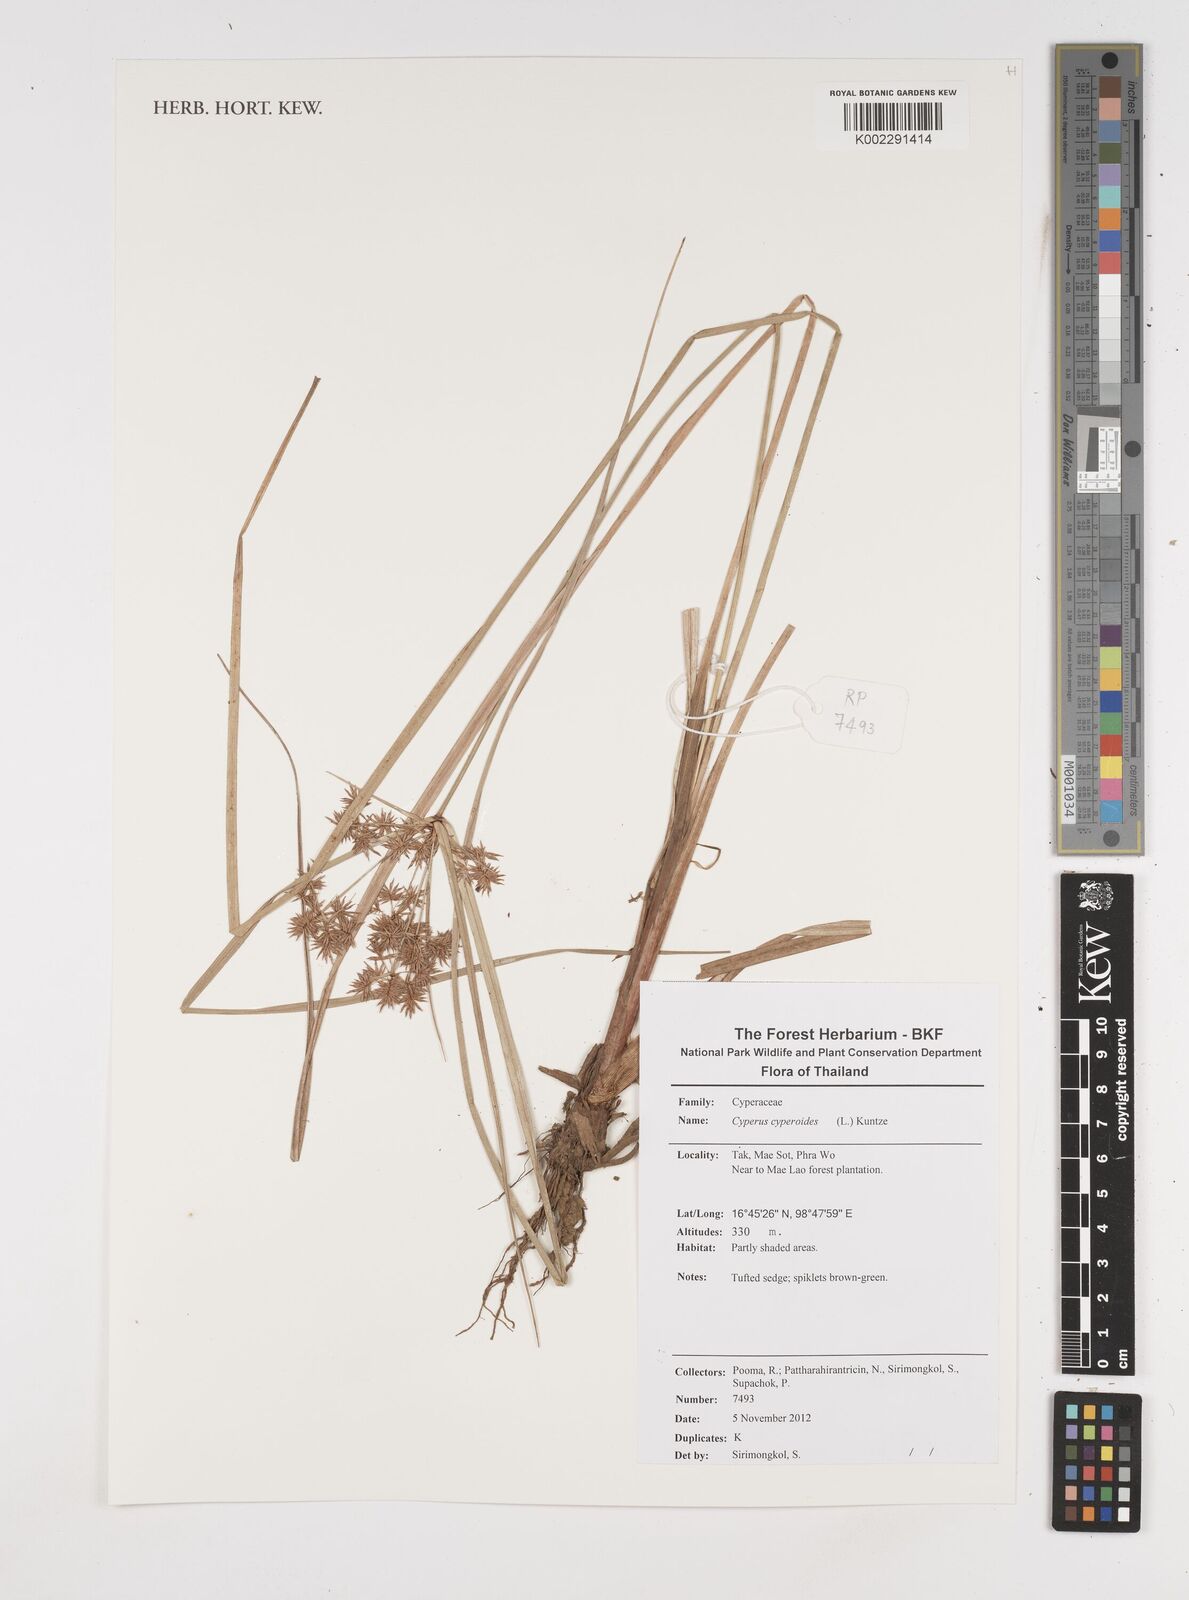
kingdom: Plantae
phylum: Tracheophyta
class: Liliopsida
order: Poales
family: Cyperaceae
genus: Cyperus
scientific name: Cyperus cyperoides
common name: Pacific island flat sedge
